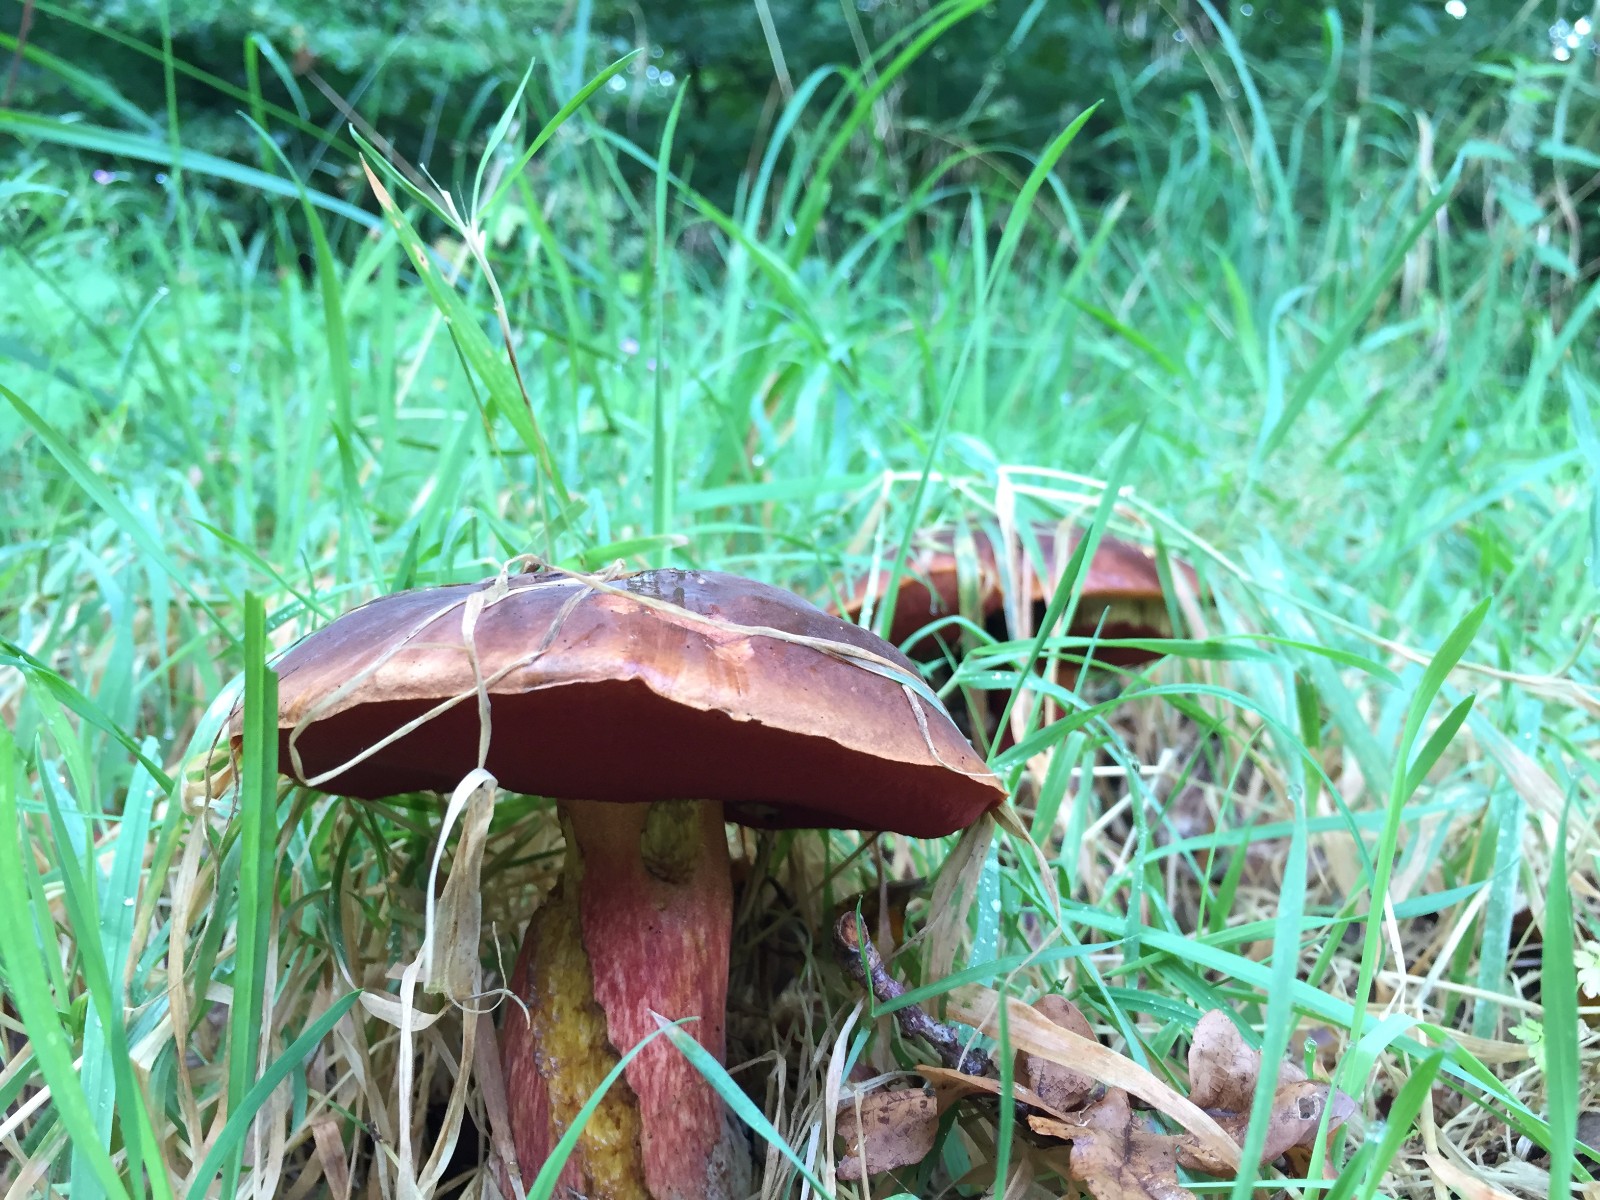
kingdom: Fungi
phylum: Basidiomycota
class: Agaricomycetes
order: Boletales
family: Boletaceae
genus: Neoboletus
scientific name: Neoboletus erythropus
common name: punktstokket indigorørhat
